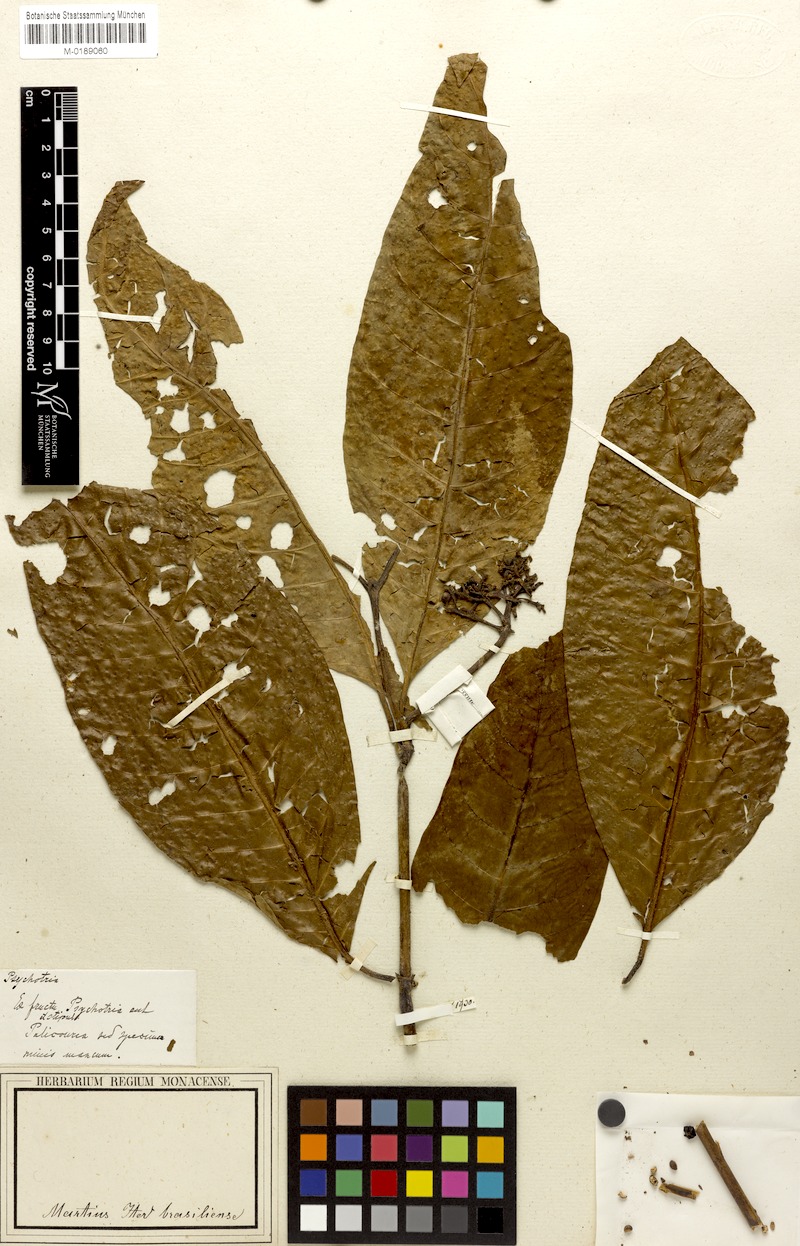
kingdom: Plantae
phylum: Tracheophyta
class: Magnoliopsida
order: Gentianales
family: Rubiaceae
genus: Psychotria
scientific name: Psychotria
